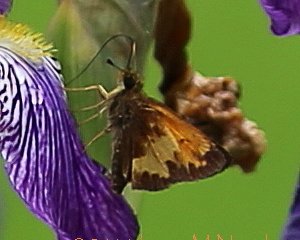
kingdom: Animalia
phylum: Arthropoda
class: Insecta
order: Lepidoptera
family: Hesperiidae
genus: Lon
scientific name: Lon hobomok
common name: Hobomok Skipper
